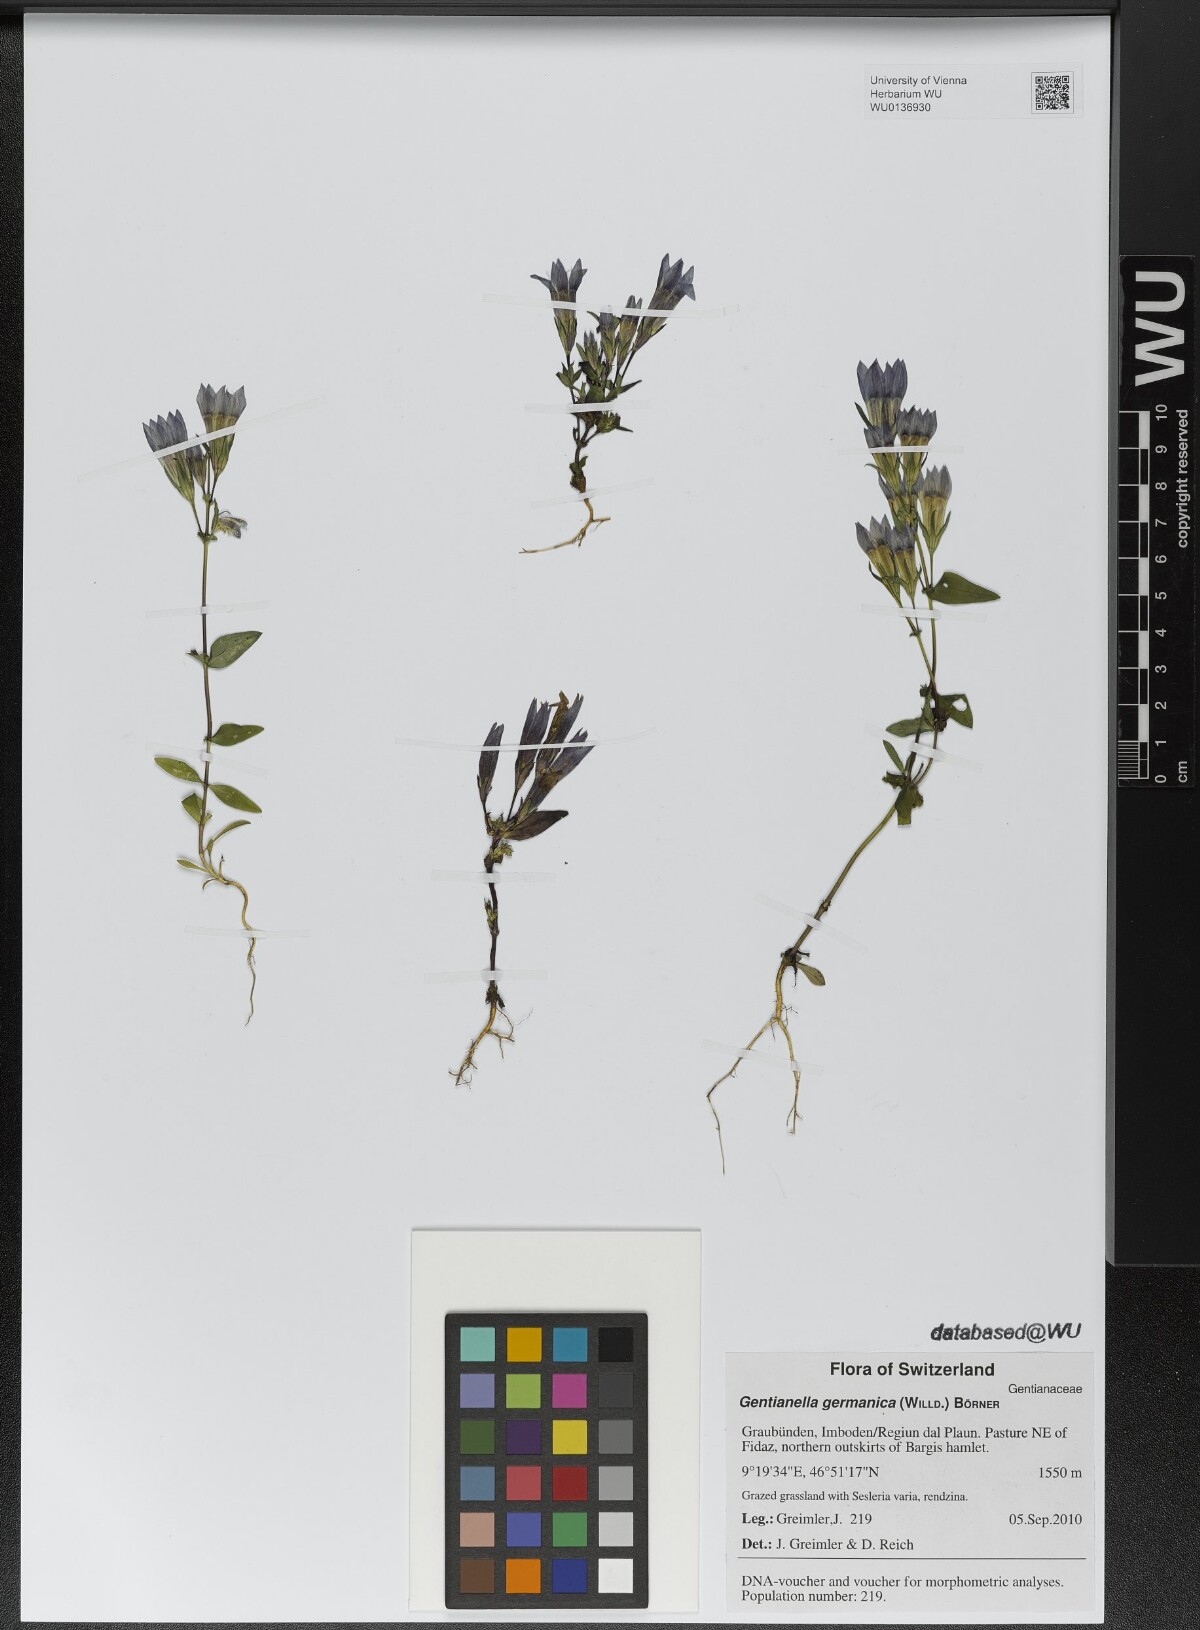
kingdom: Plantae
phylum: Tracheophyta
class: Magnoliopsida
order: Gentianales
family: Gentianaceae
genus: Gentianella
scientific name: Gentianella germanica
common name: Chiltern-gentian
